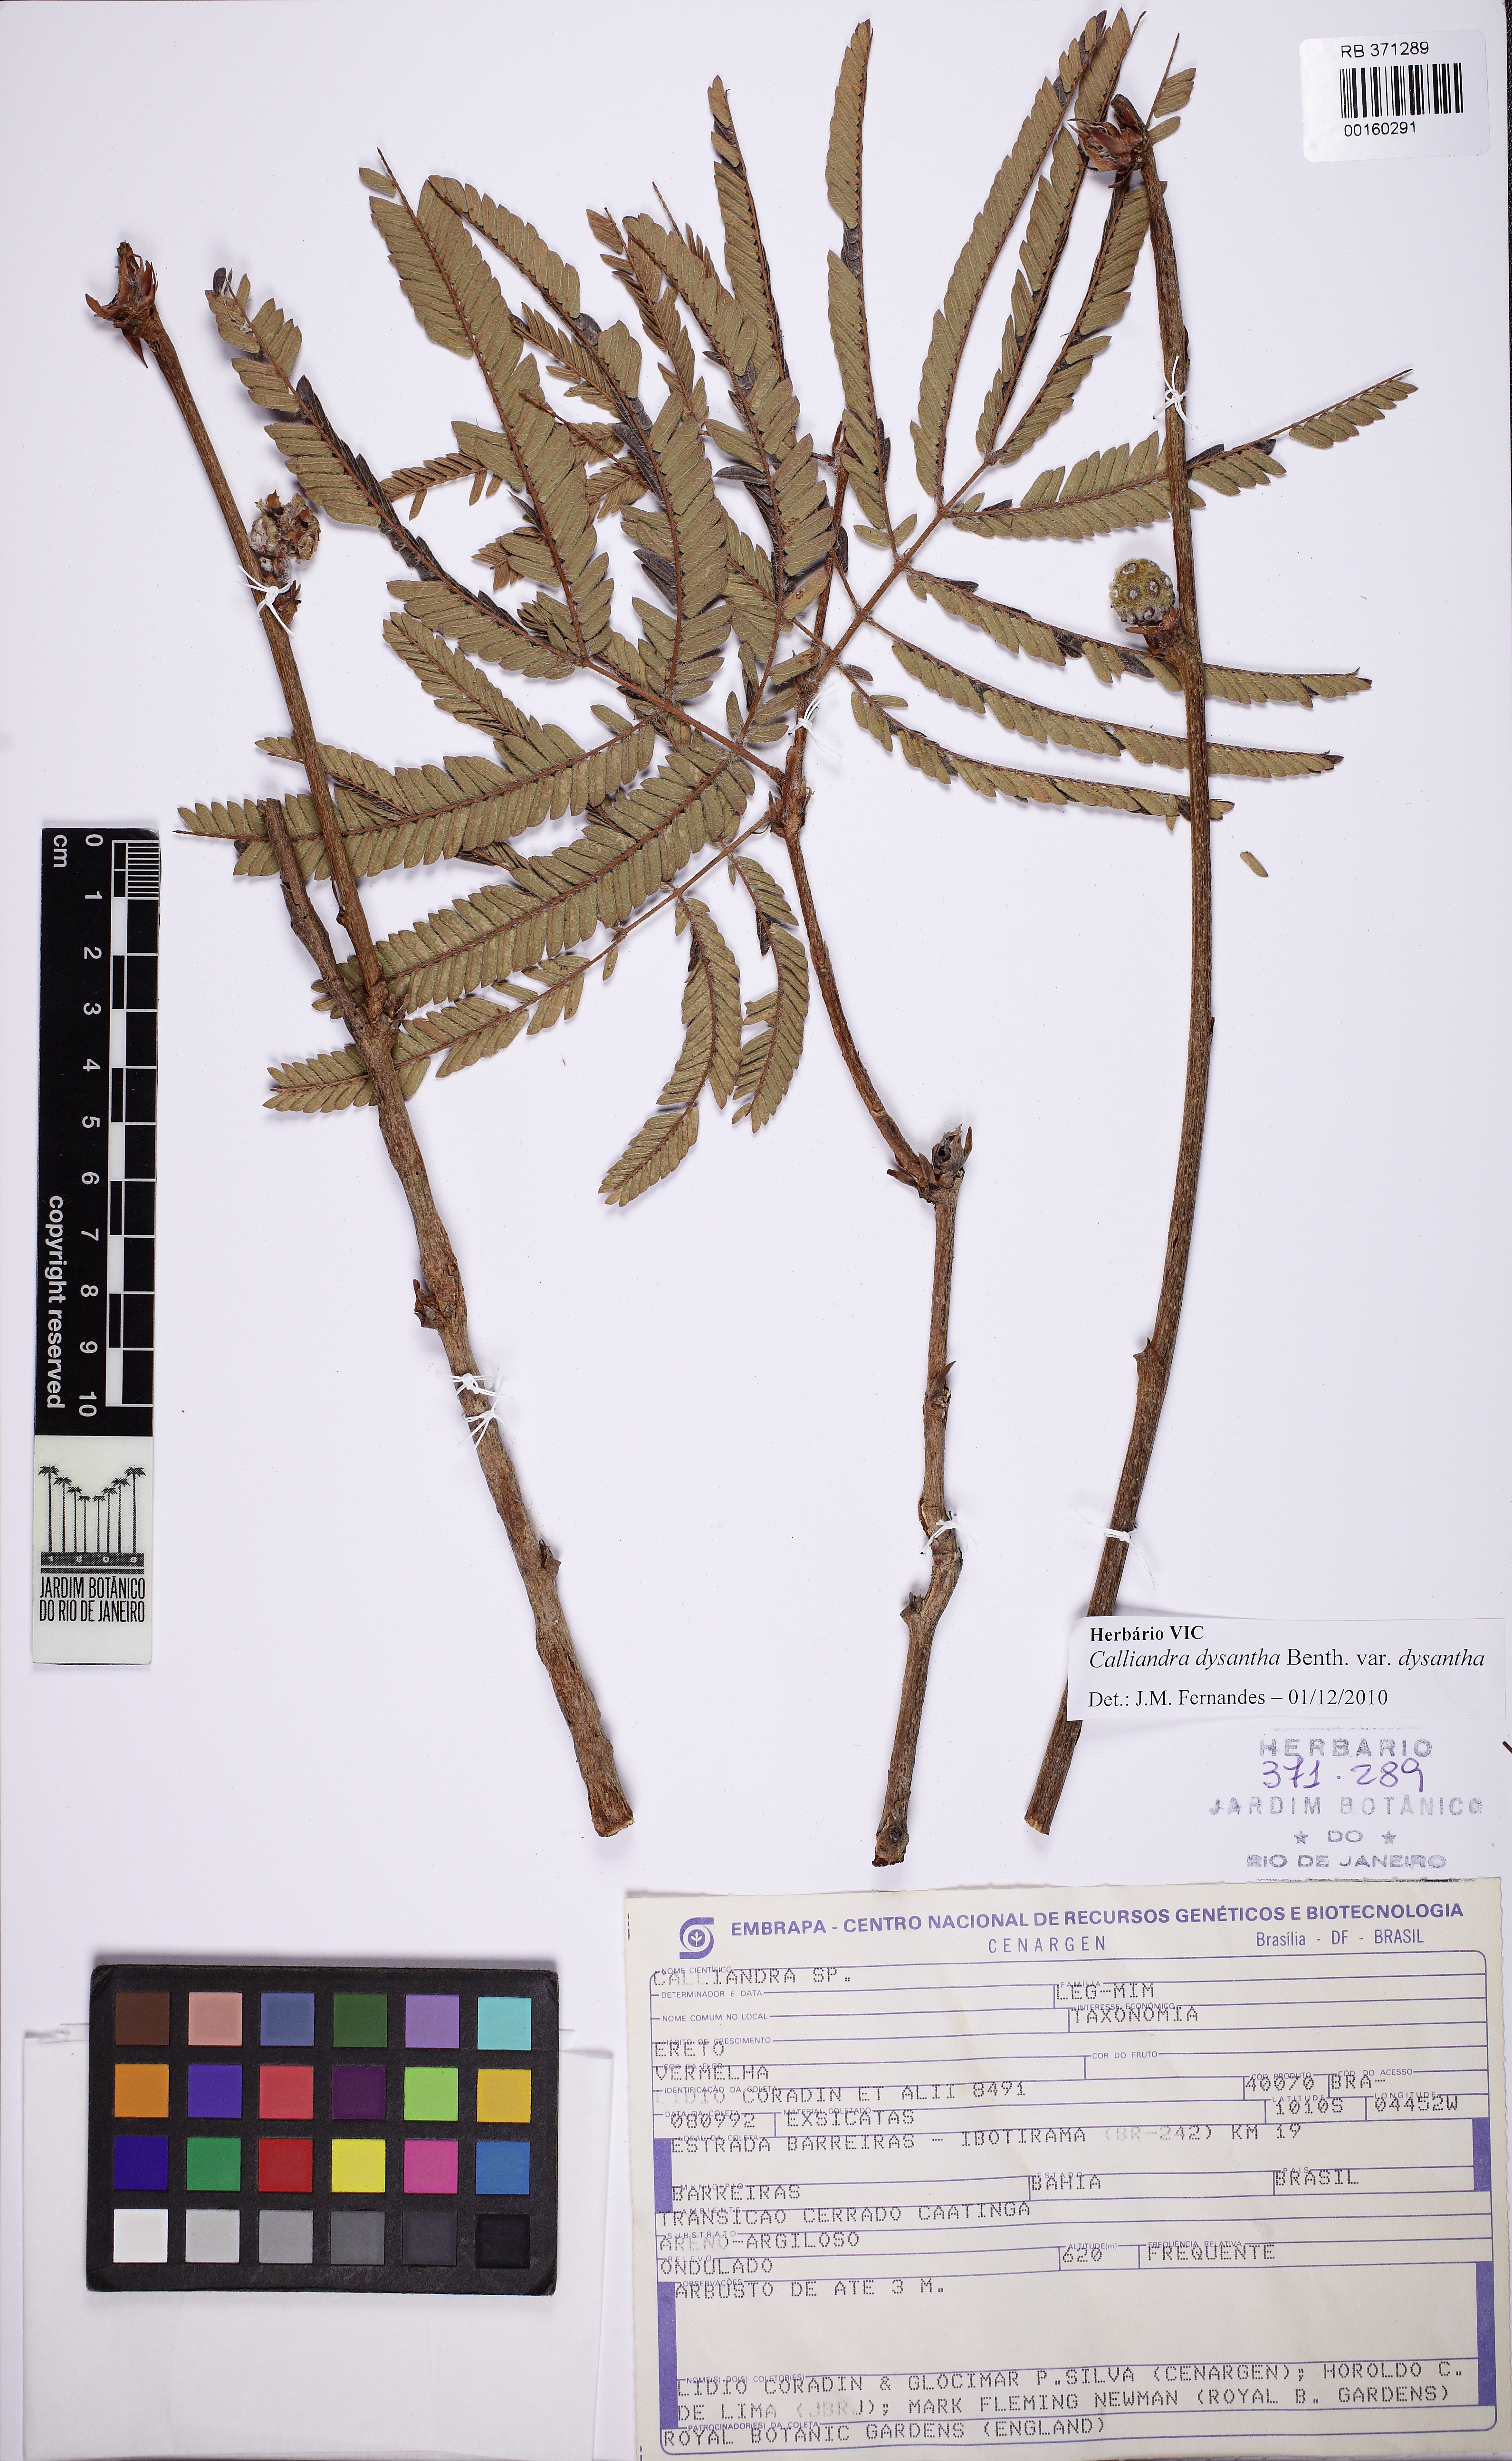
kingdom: Plantae
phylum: Tracheophyta
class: Magnoliopsida
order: Fabales
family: Fabaceae
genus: Calliandra
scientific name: Calliandra dysantha
